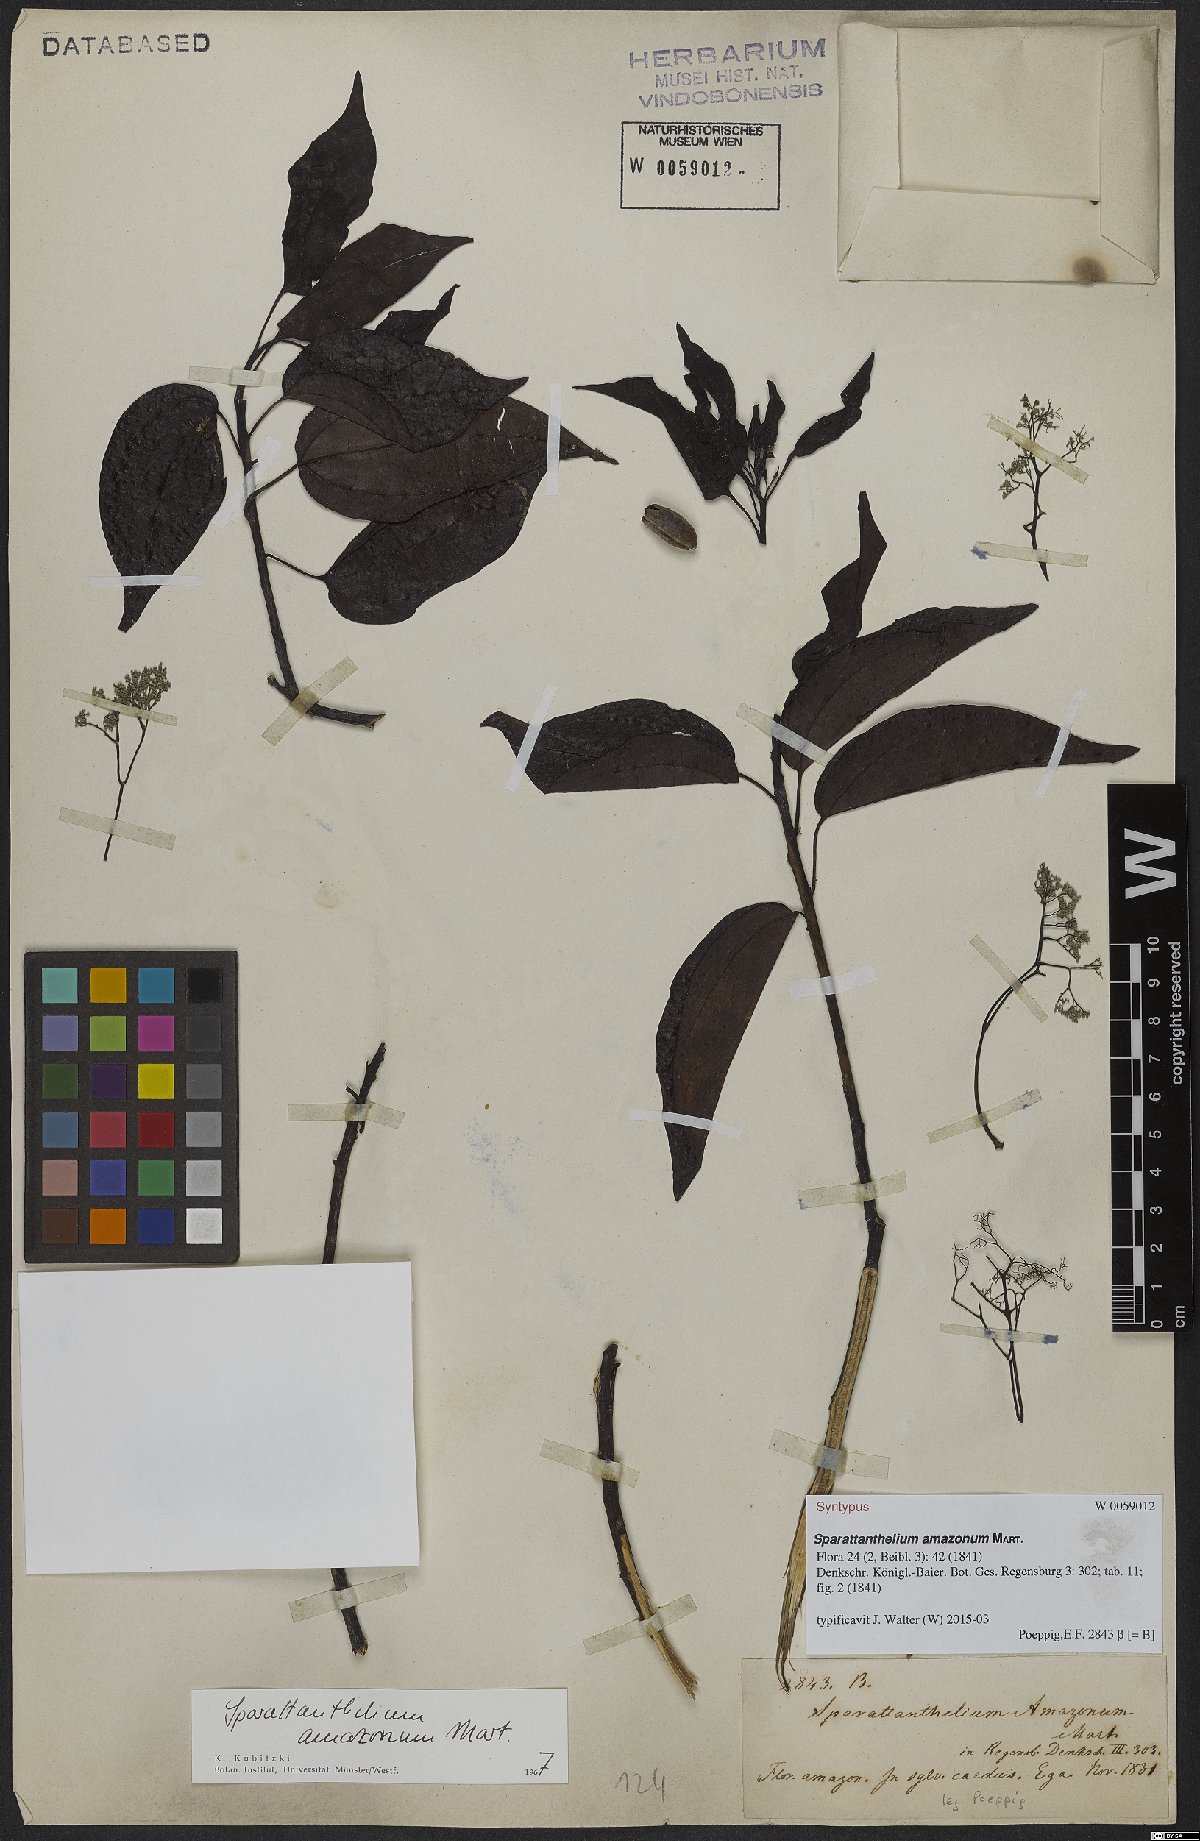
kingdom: Plantae
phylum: Tracheophyta
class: Magnoliopsida
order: Laurales
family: Hernandiaceae
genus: Sparattanthelium
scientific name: Sparattanthelium amazonum
